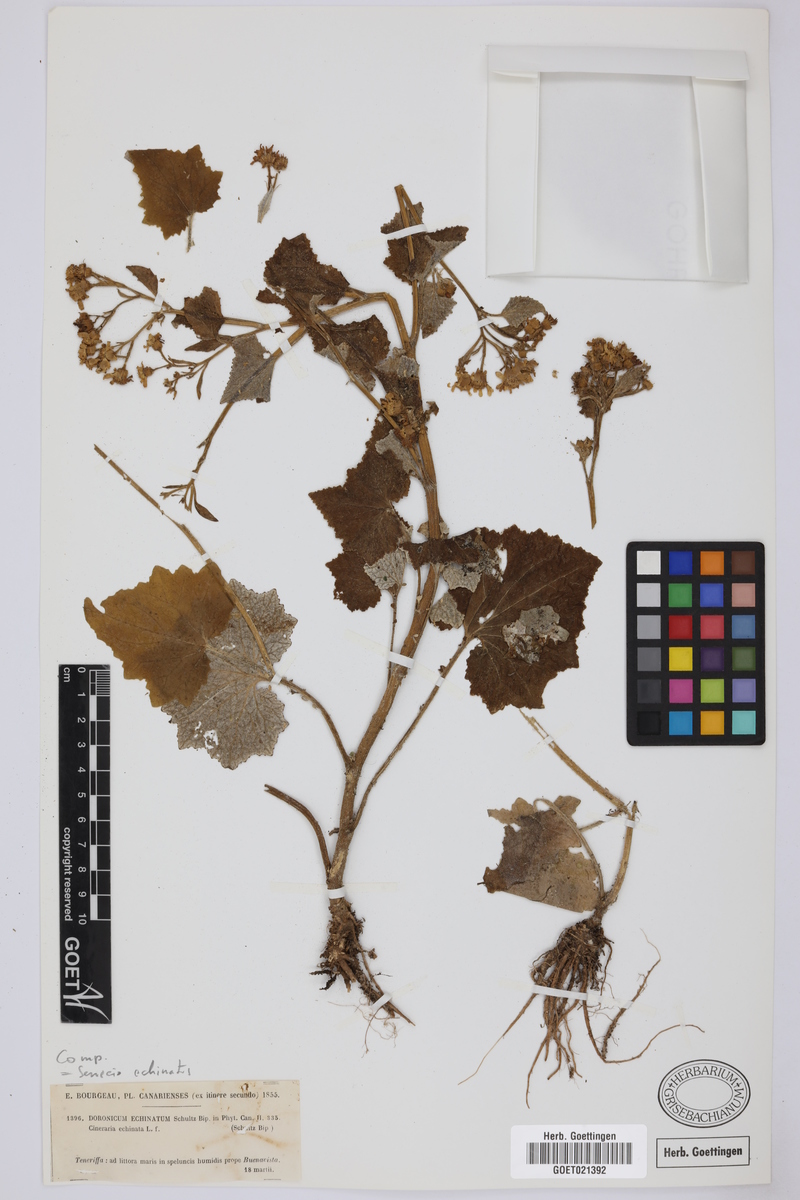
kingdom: Plantae
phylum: Tracheophyta
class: Magnoliopsida
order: Asterales
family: Asteraceae
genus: Pericallis
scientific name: Pericallis echinata
